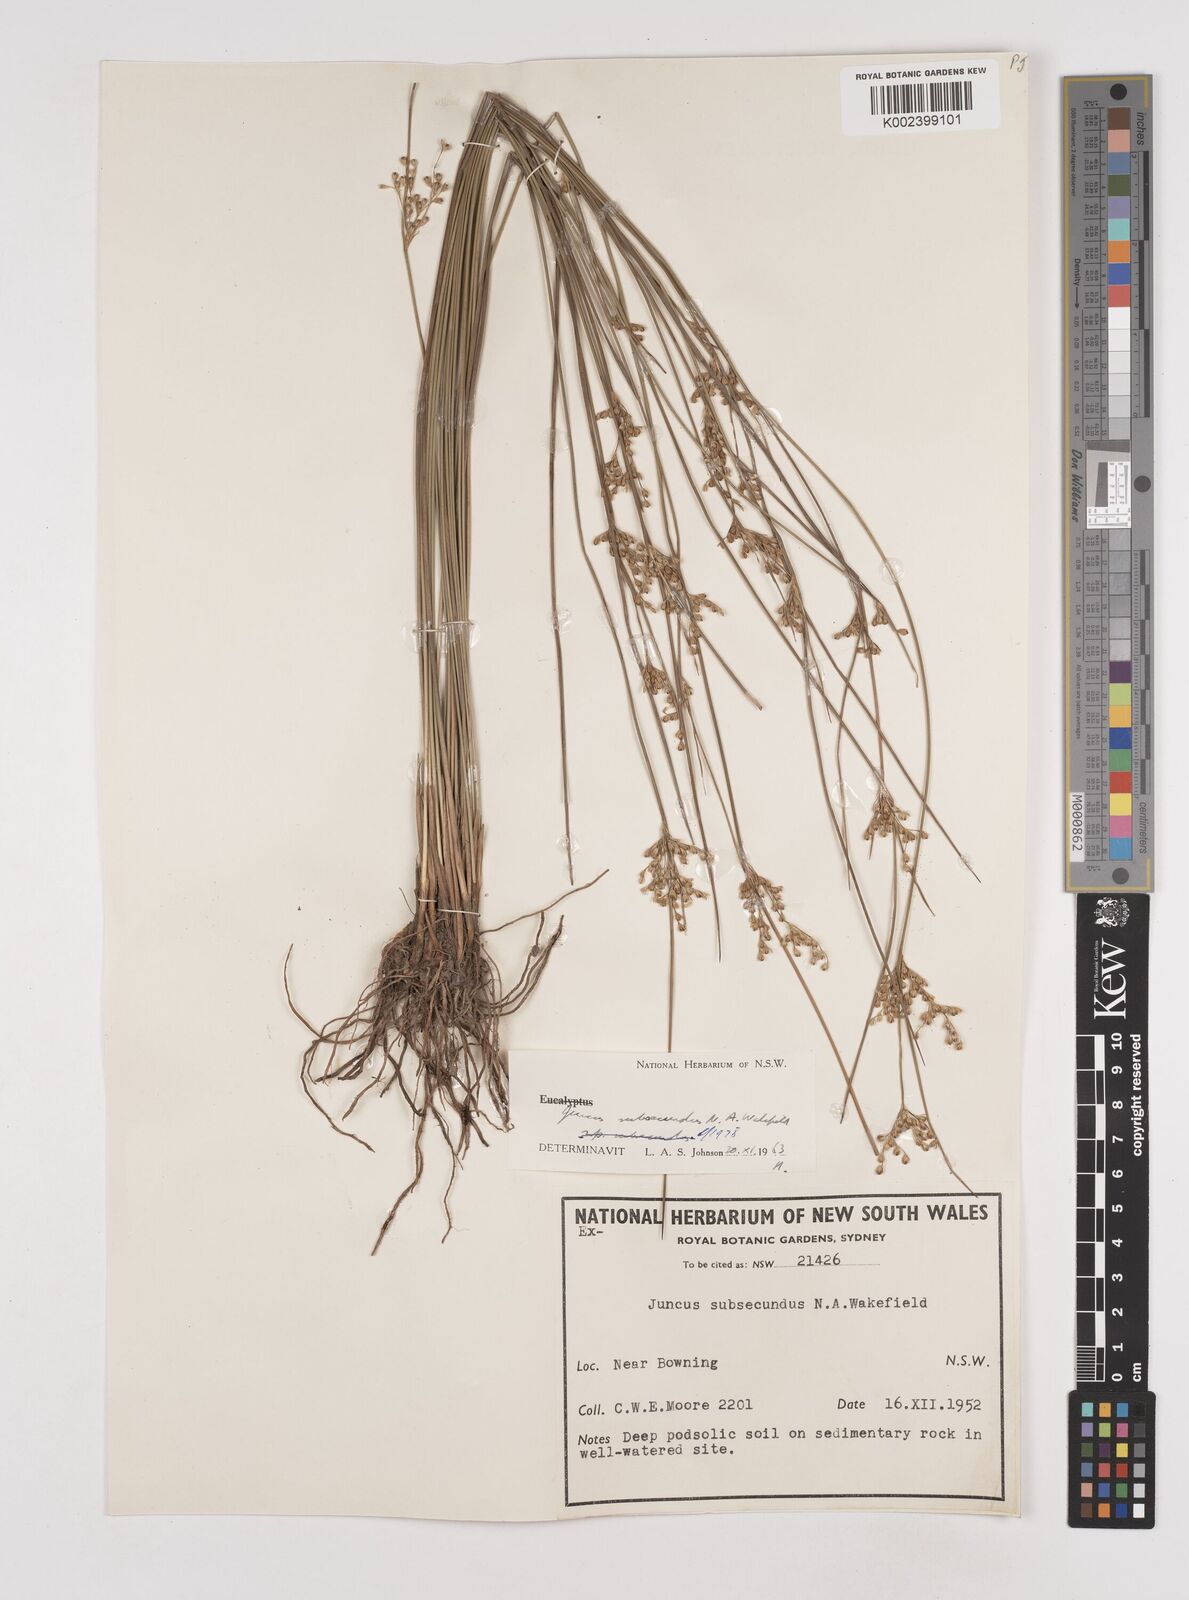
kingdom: Plantae
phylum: Tracheophyta
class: Liliopsida
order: Poales
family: Juncaceae
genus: Juncus
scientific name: Juncus subsecundus
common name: Fingered rush
